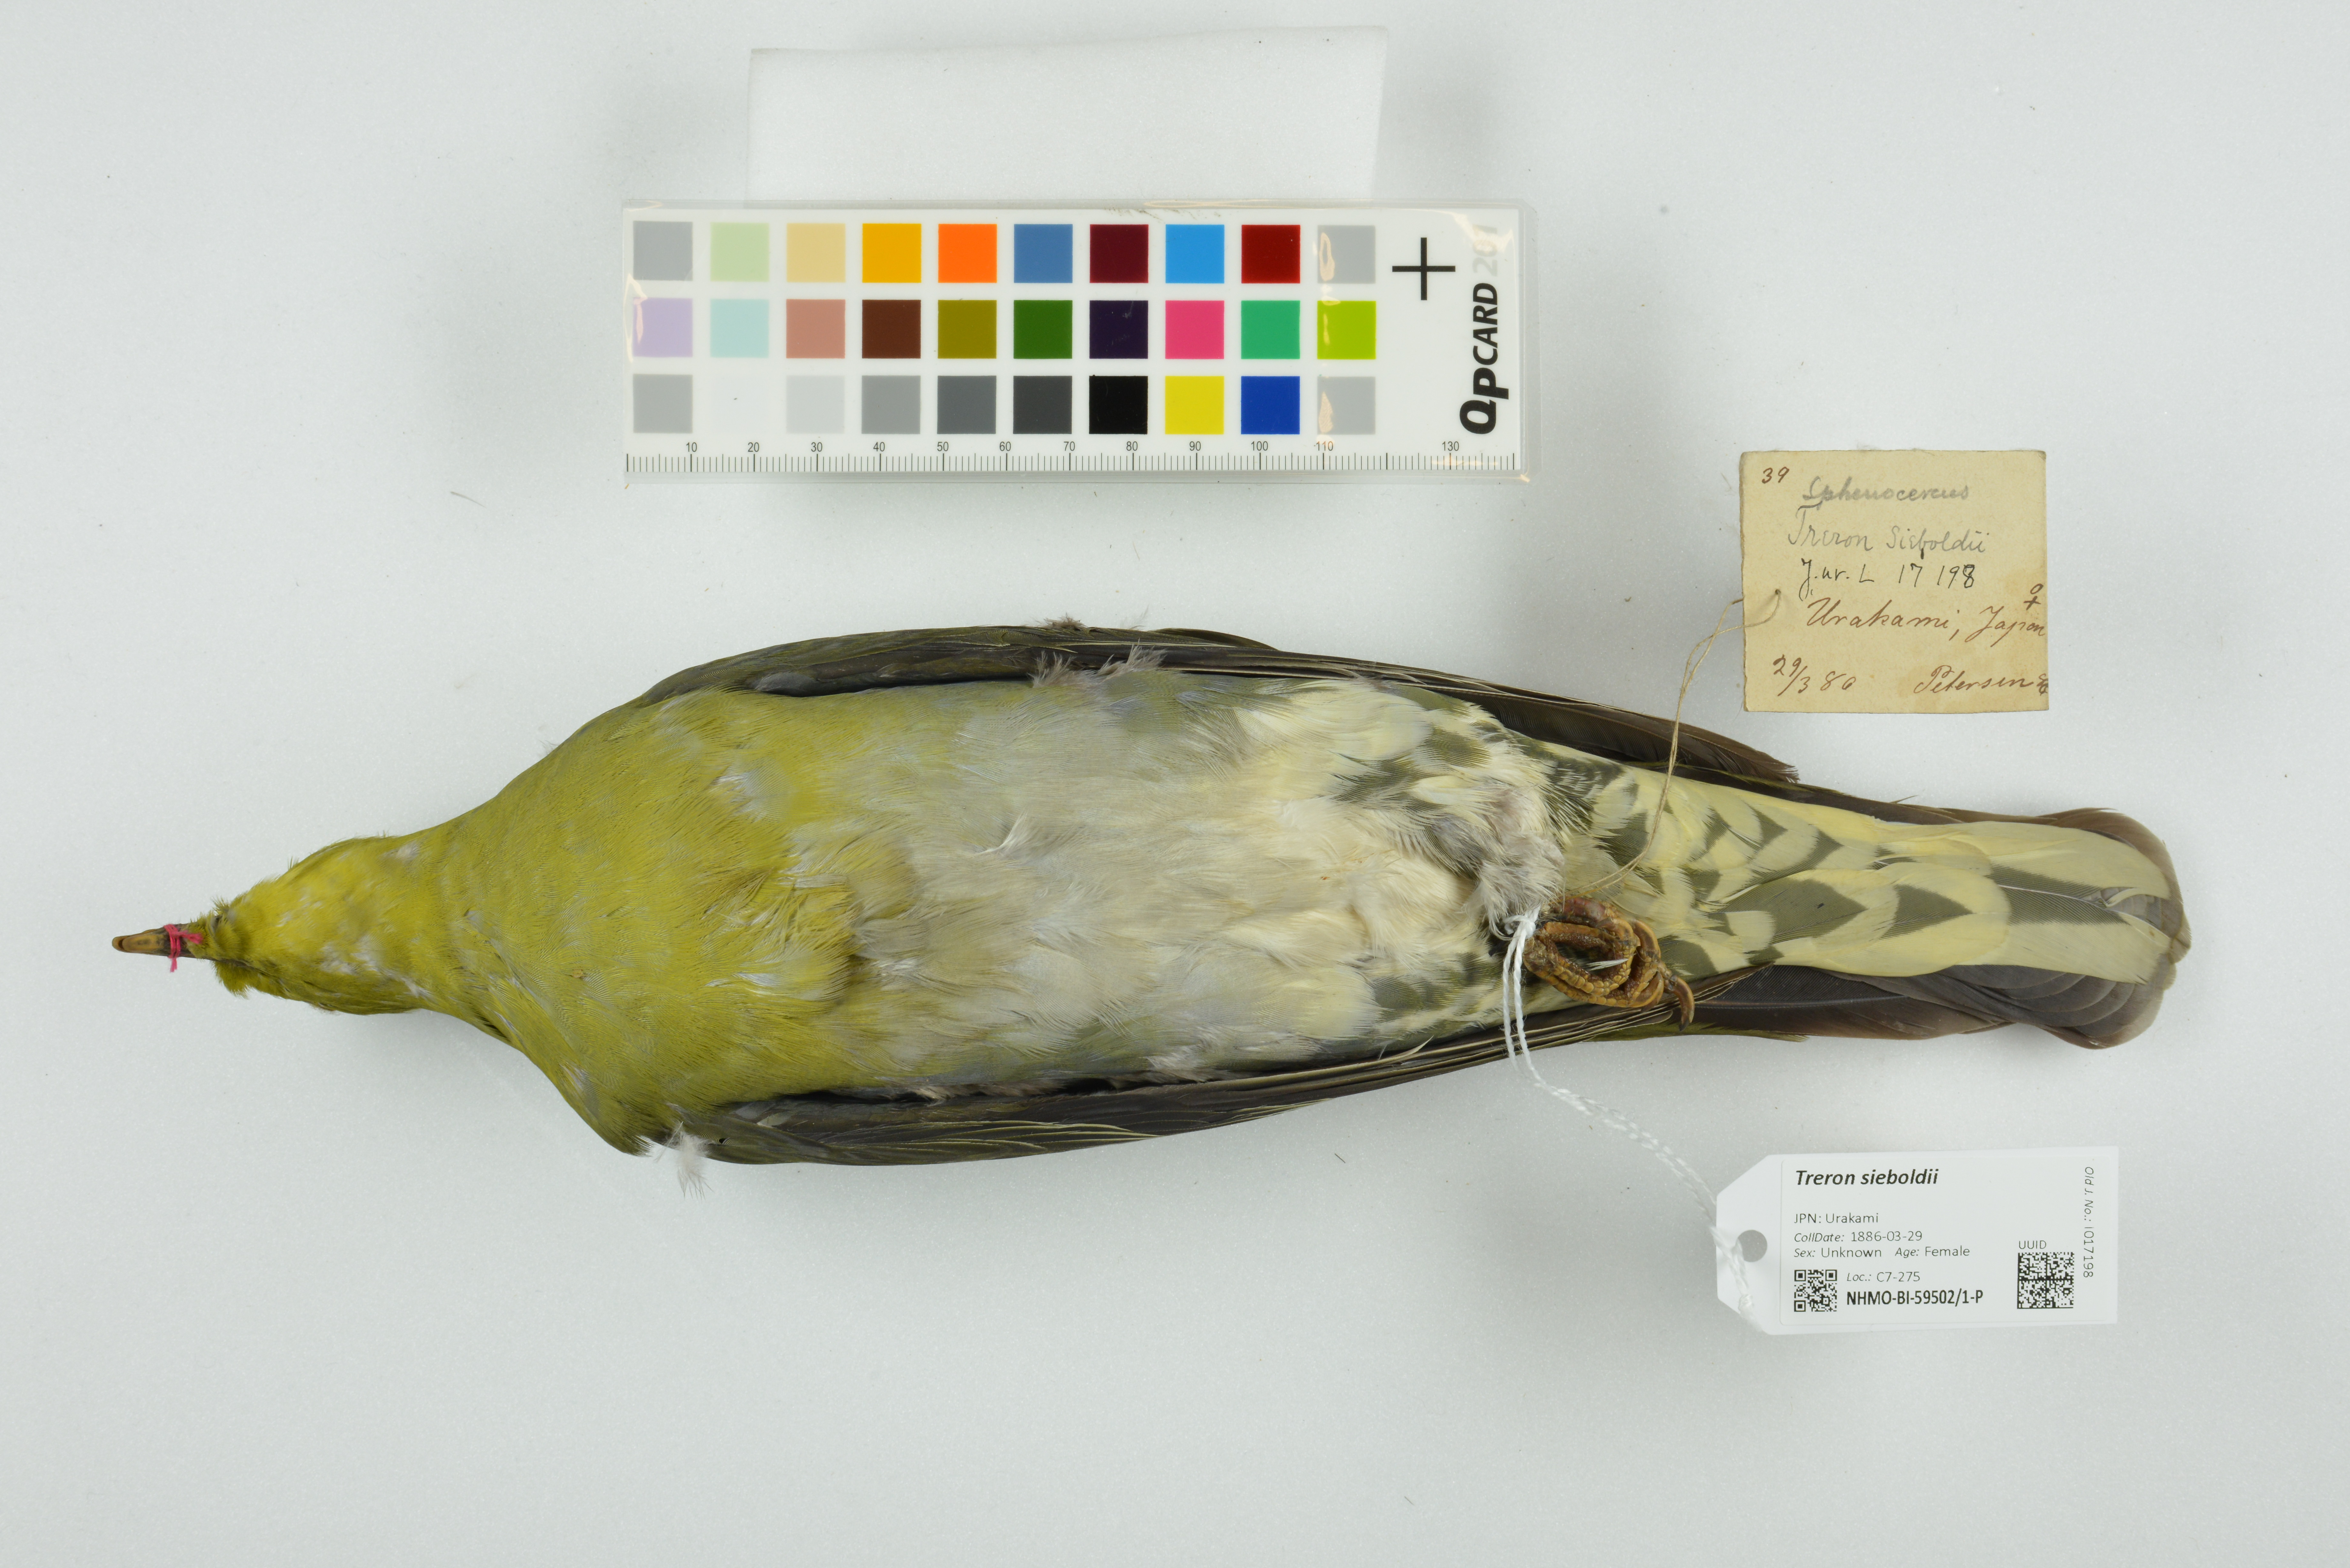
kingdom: Animalia
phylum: Chordata
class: Aves
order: Columbiformes
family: Columbidae
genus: Treron
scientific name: Treron sieboldii
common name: White-bellied green pigeon
